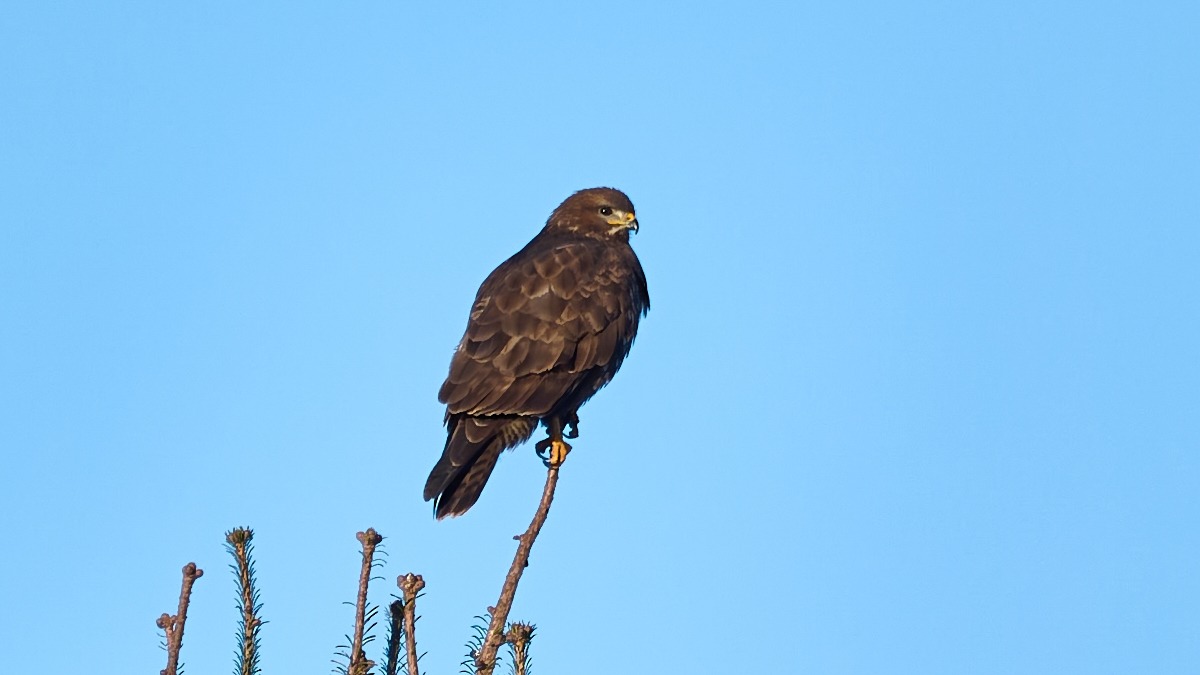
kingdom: Animalia
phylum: Chordata
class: Aves
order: Accipitriformes
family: Accipitridae
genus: Buteo
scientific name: Buteo buteo
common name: Musvåge
